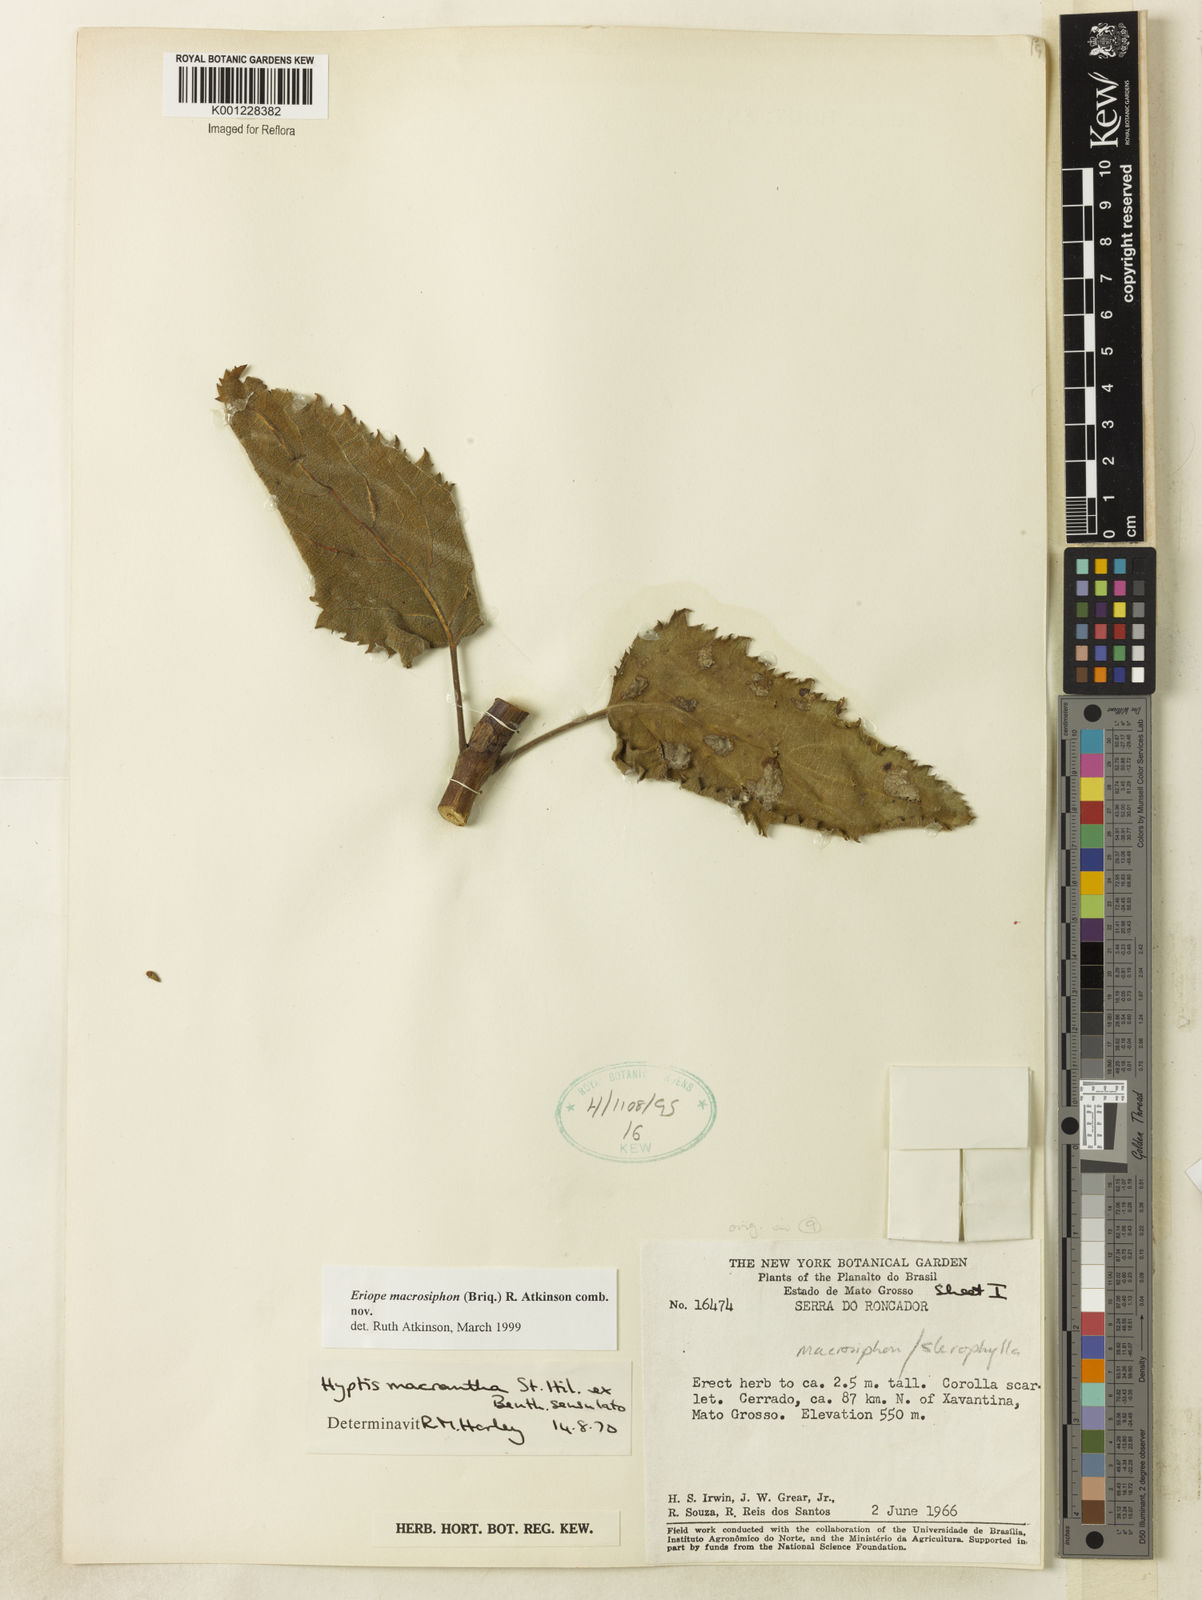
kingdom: Plantae
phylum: Tracheophyta
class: Magnoliopsida
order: Lamiales
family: Lamiaceae
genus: Hypenia
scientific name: Hypenia macrosiphon
